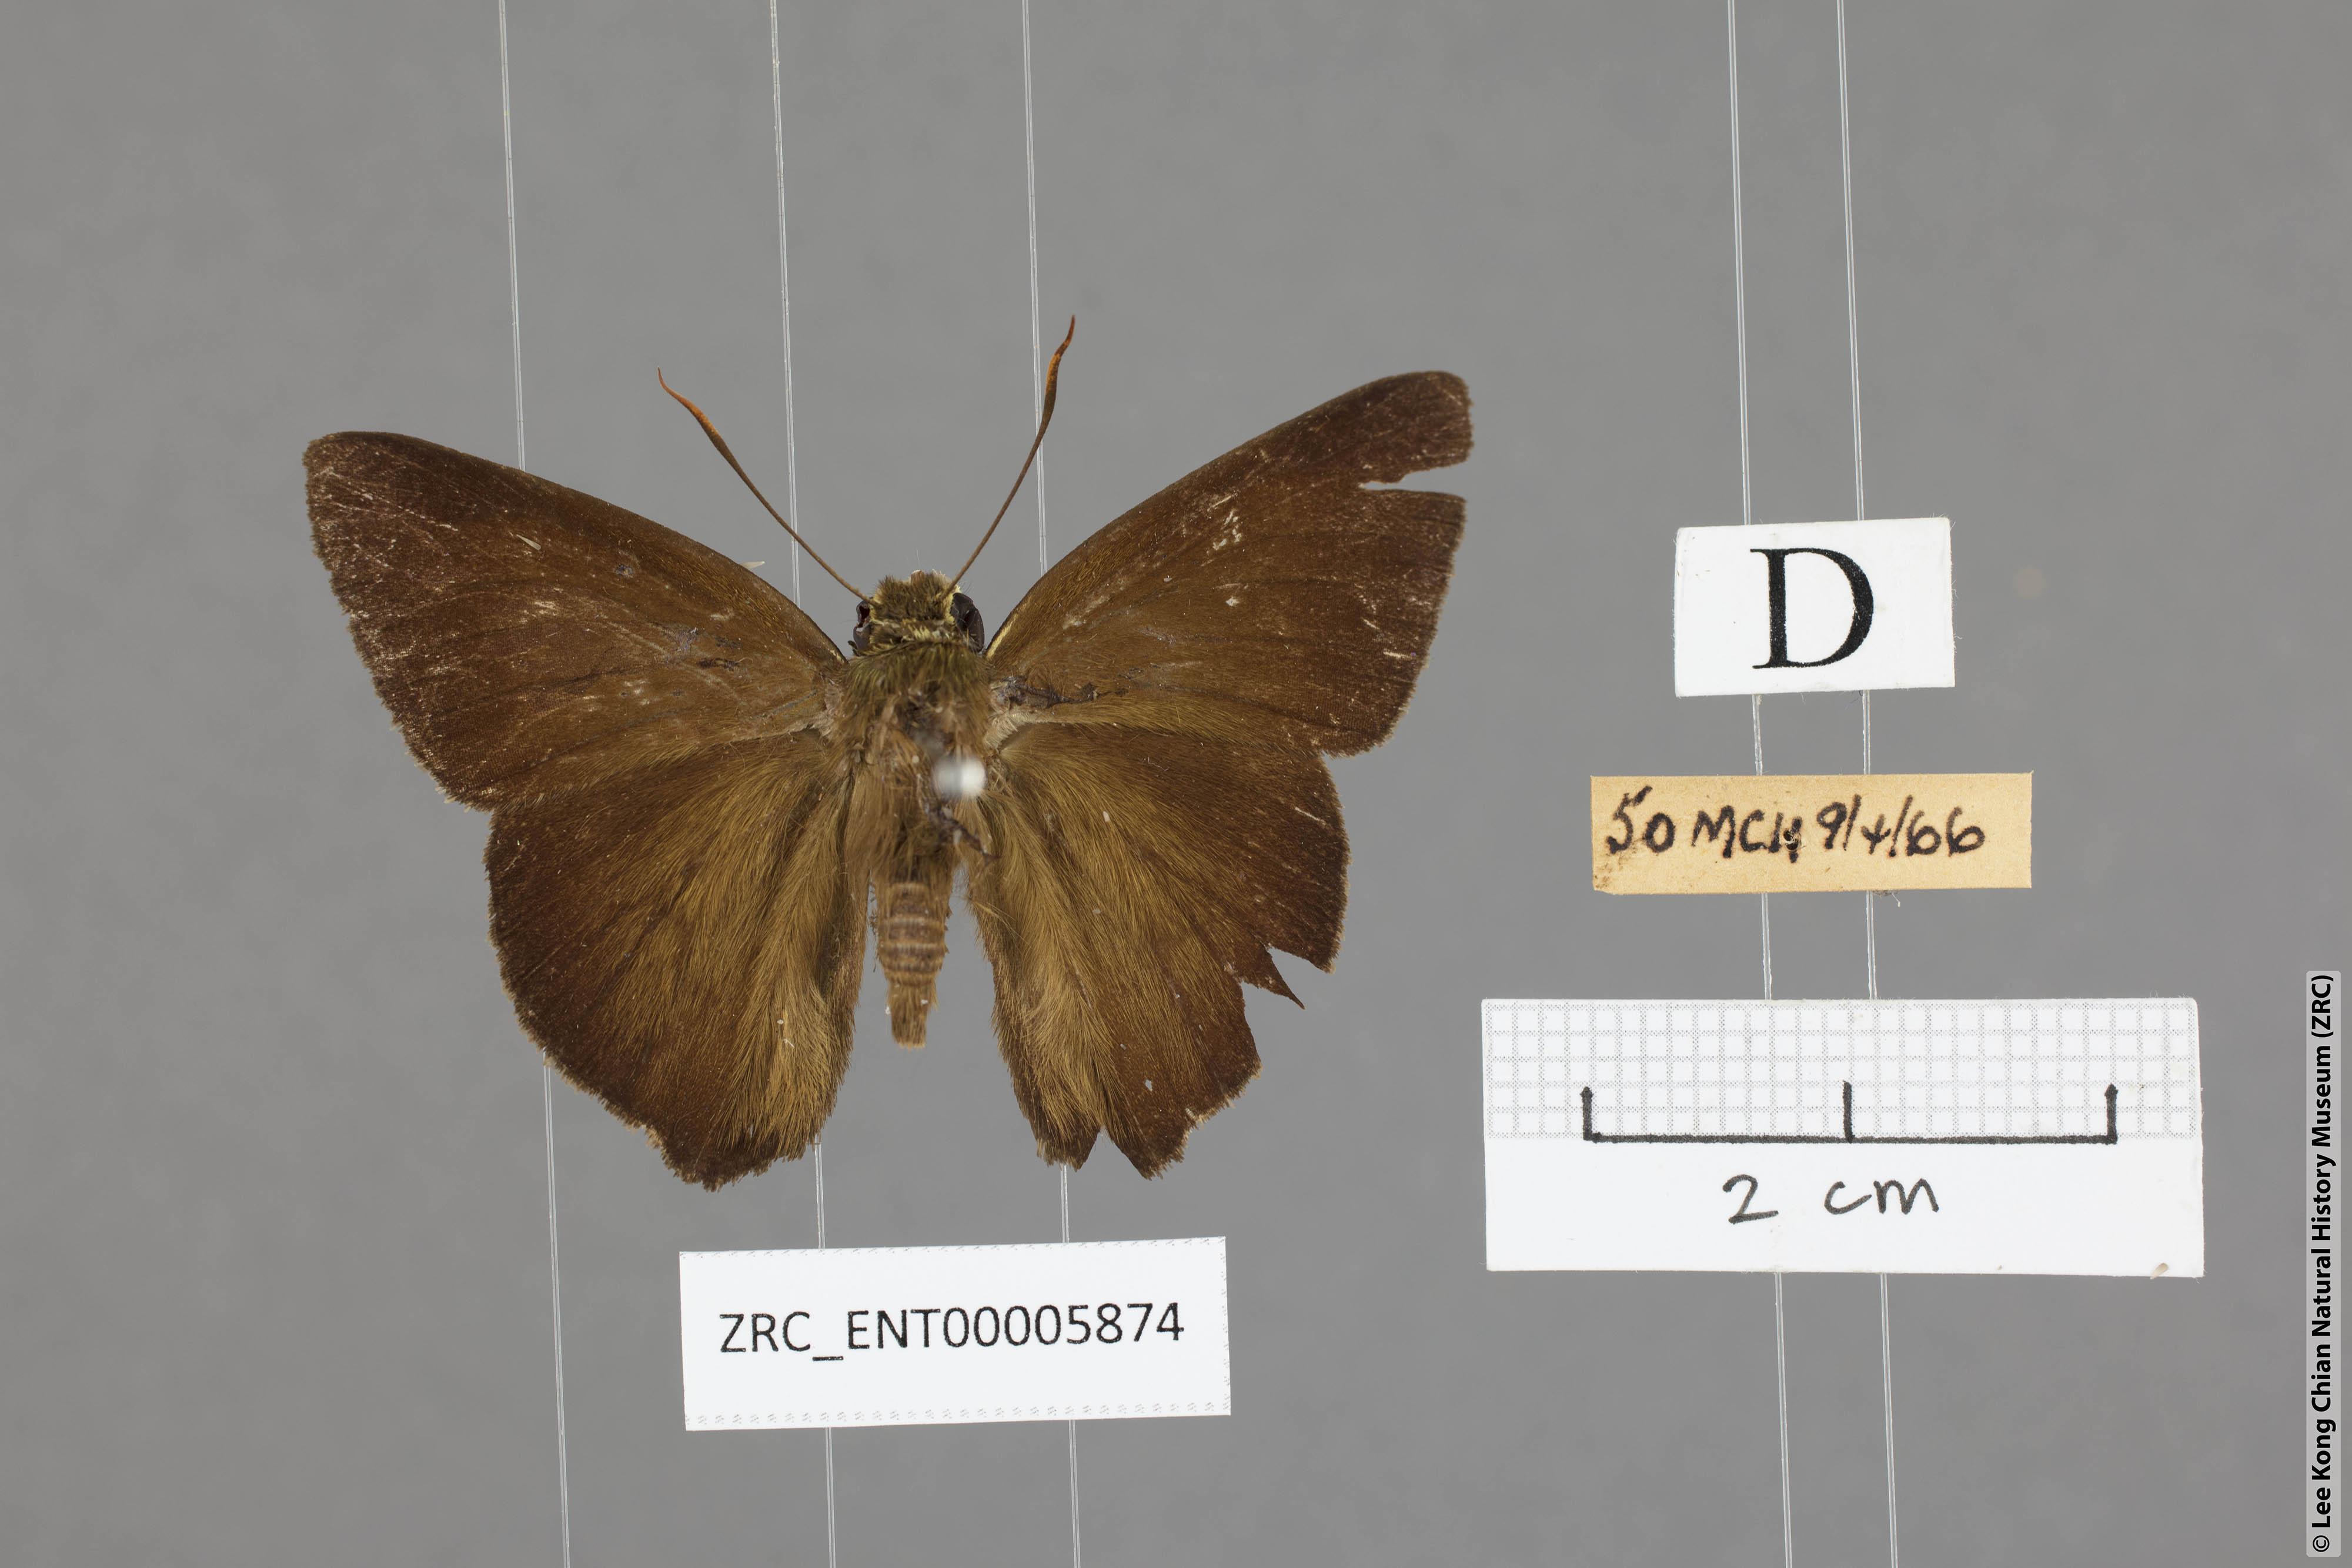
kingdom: Animalia
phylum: Arthropoda
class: Insecta
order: Lepidoptera
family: Hesperiidae
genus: Hasora
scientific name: Hasora lizetta
